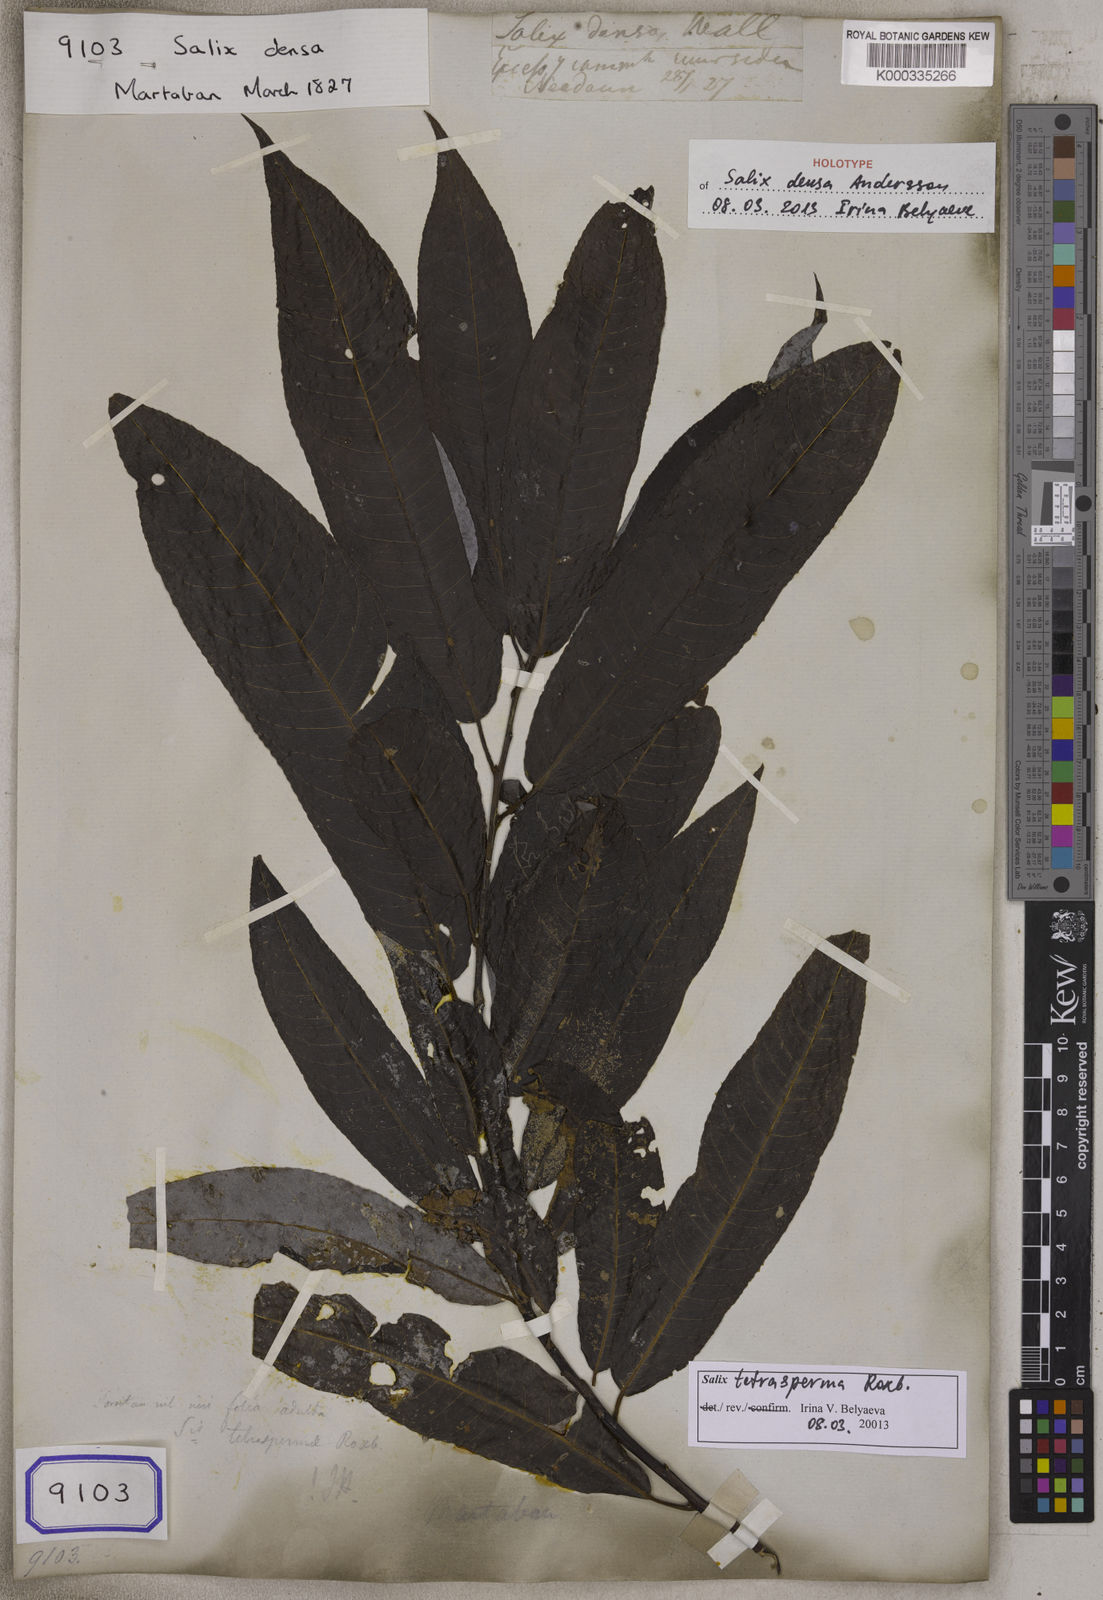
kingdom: Plantae
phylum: Tracheophyta
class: Magnoliopsida
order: Malpighiales
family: Salicaceae
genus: Salix
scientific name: Salix tetrasperma
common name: Indian willow
